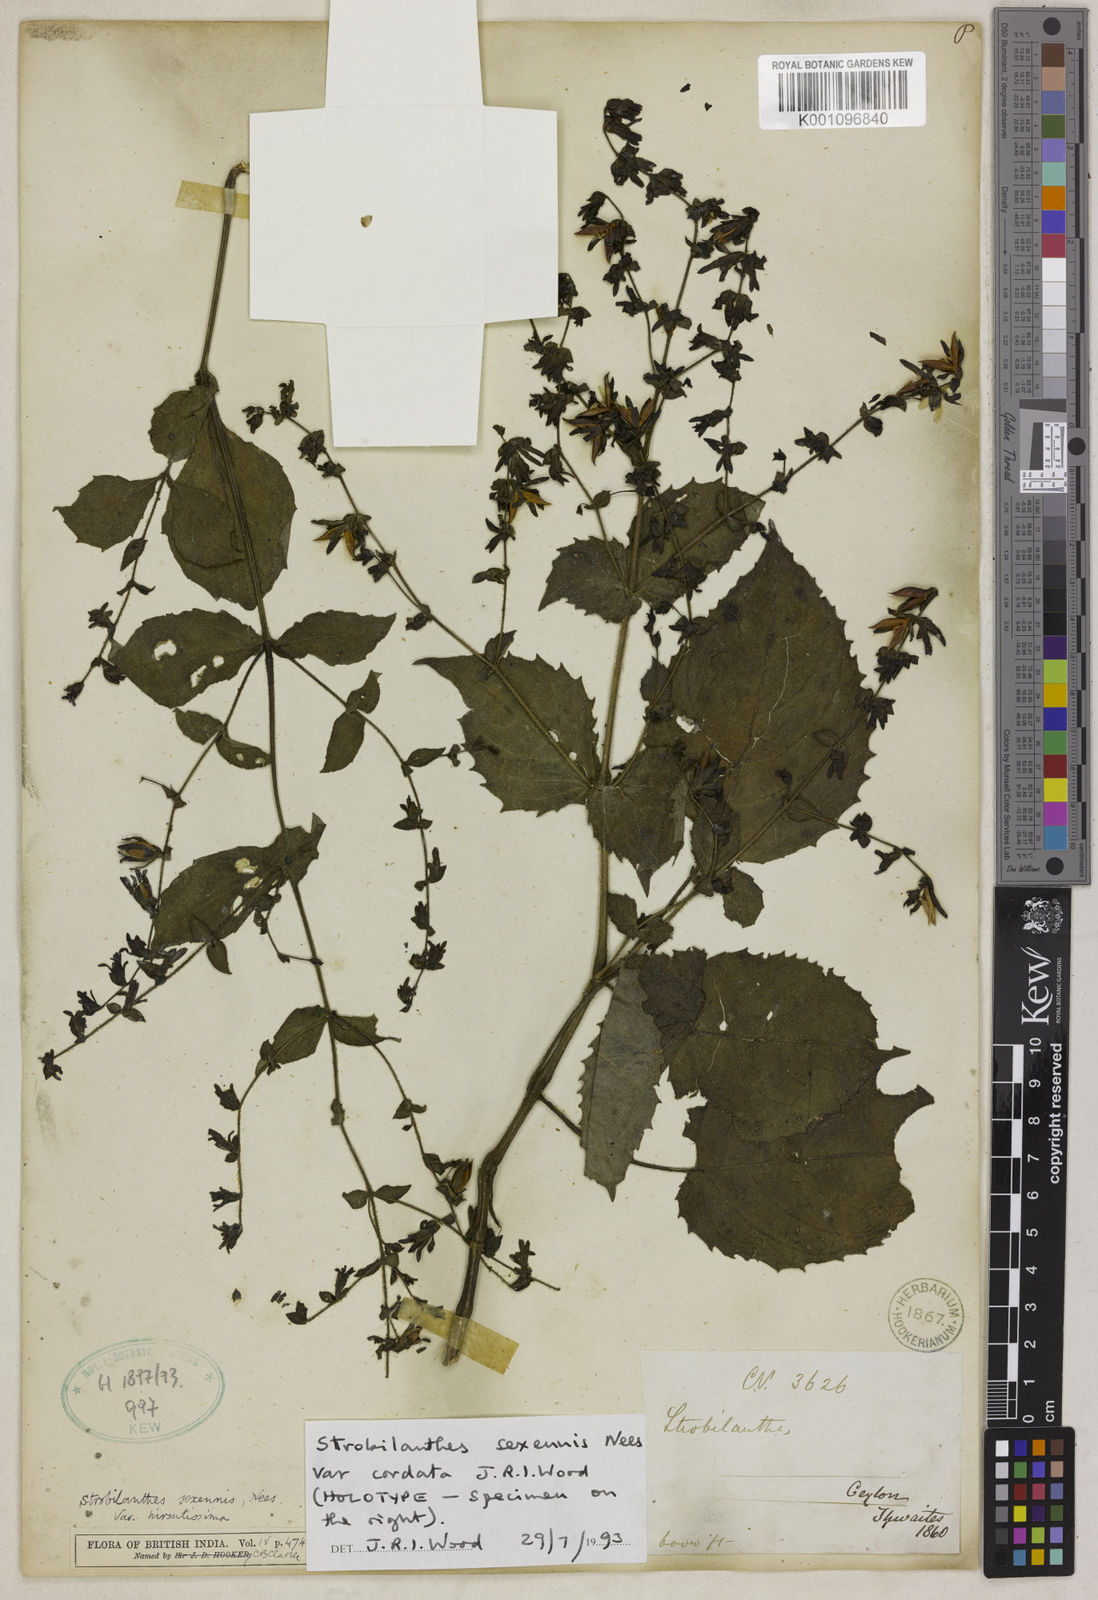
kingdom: Plantae
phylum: Tracheophyta
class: Magnoliopsida
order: Lamiales
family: Acanthaceae
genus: Strobilanthes
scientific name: Strobilanthes sexennis
